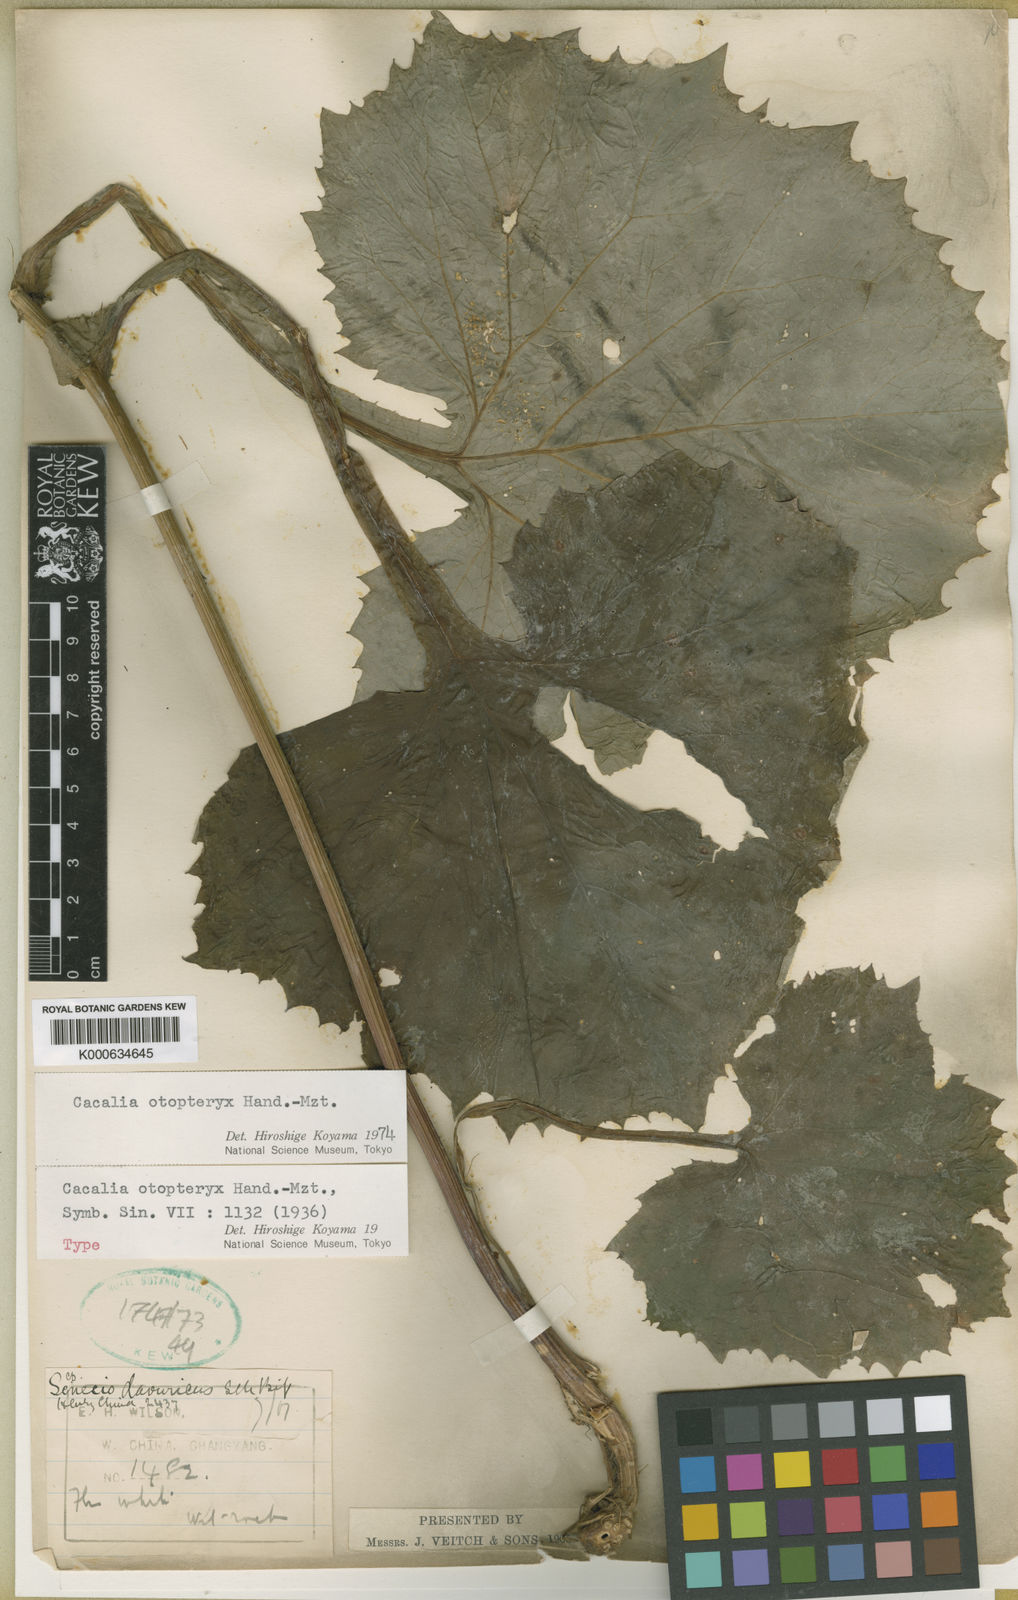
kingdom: Plantae
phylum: Tracheophyta
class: Magnoliopsida
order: Asterales
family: Asteraceae
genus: Parasenecio
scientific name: Parasenecio otopteryx
